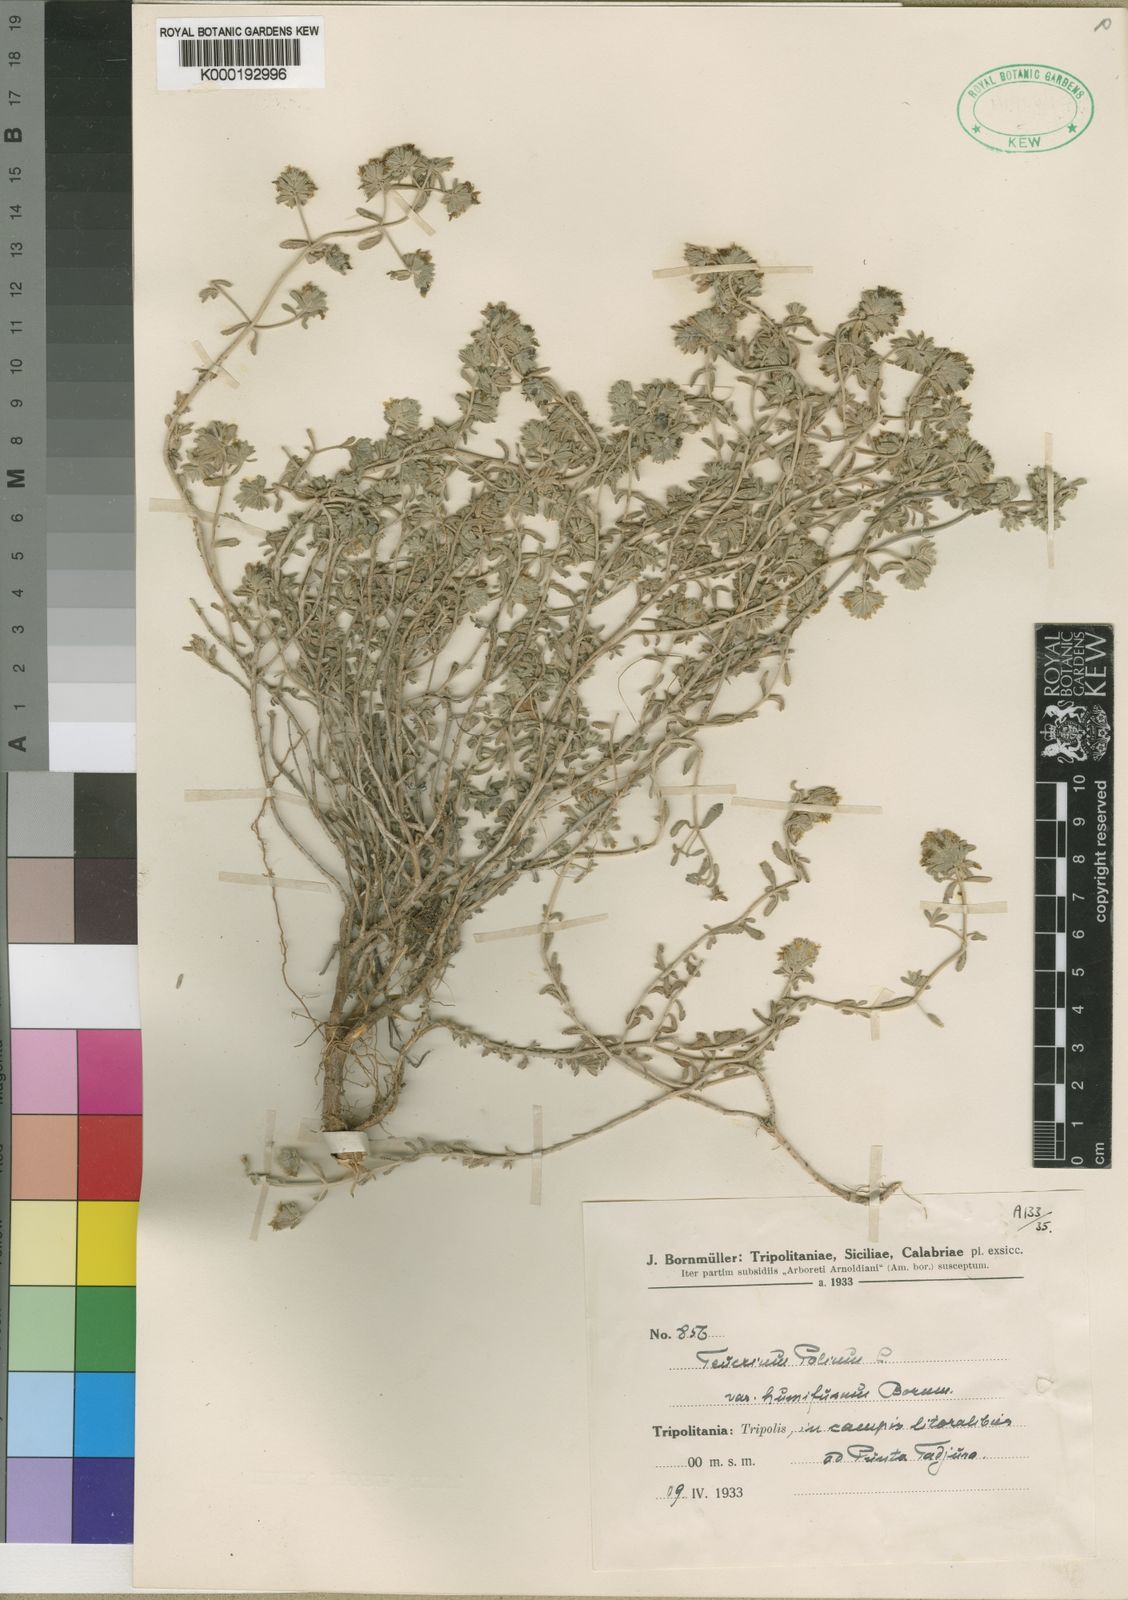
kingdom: Plantae
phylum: Tracheophyta
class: Magnoliopsida
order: Lamiales
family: Lamiaceae
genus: Teucrium
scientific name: Teucrium polium
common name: Poley
